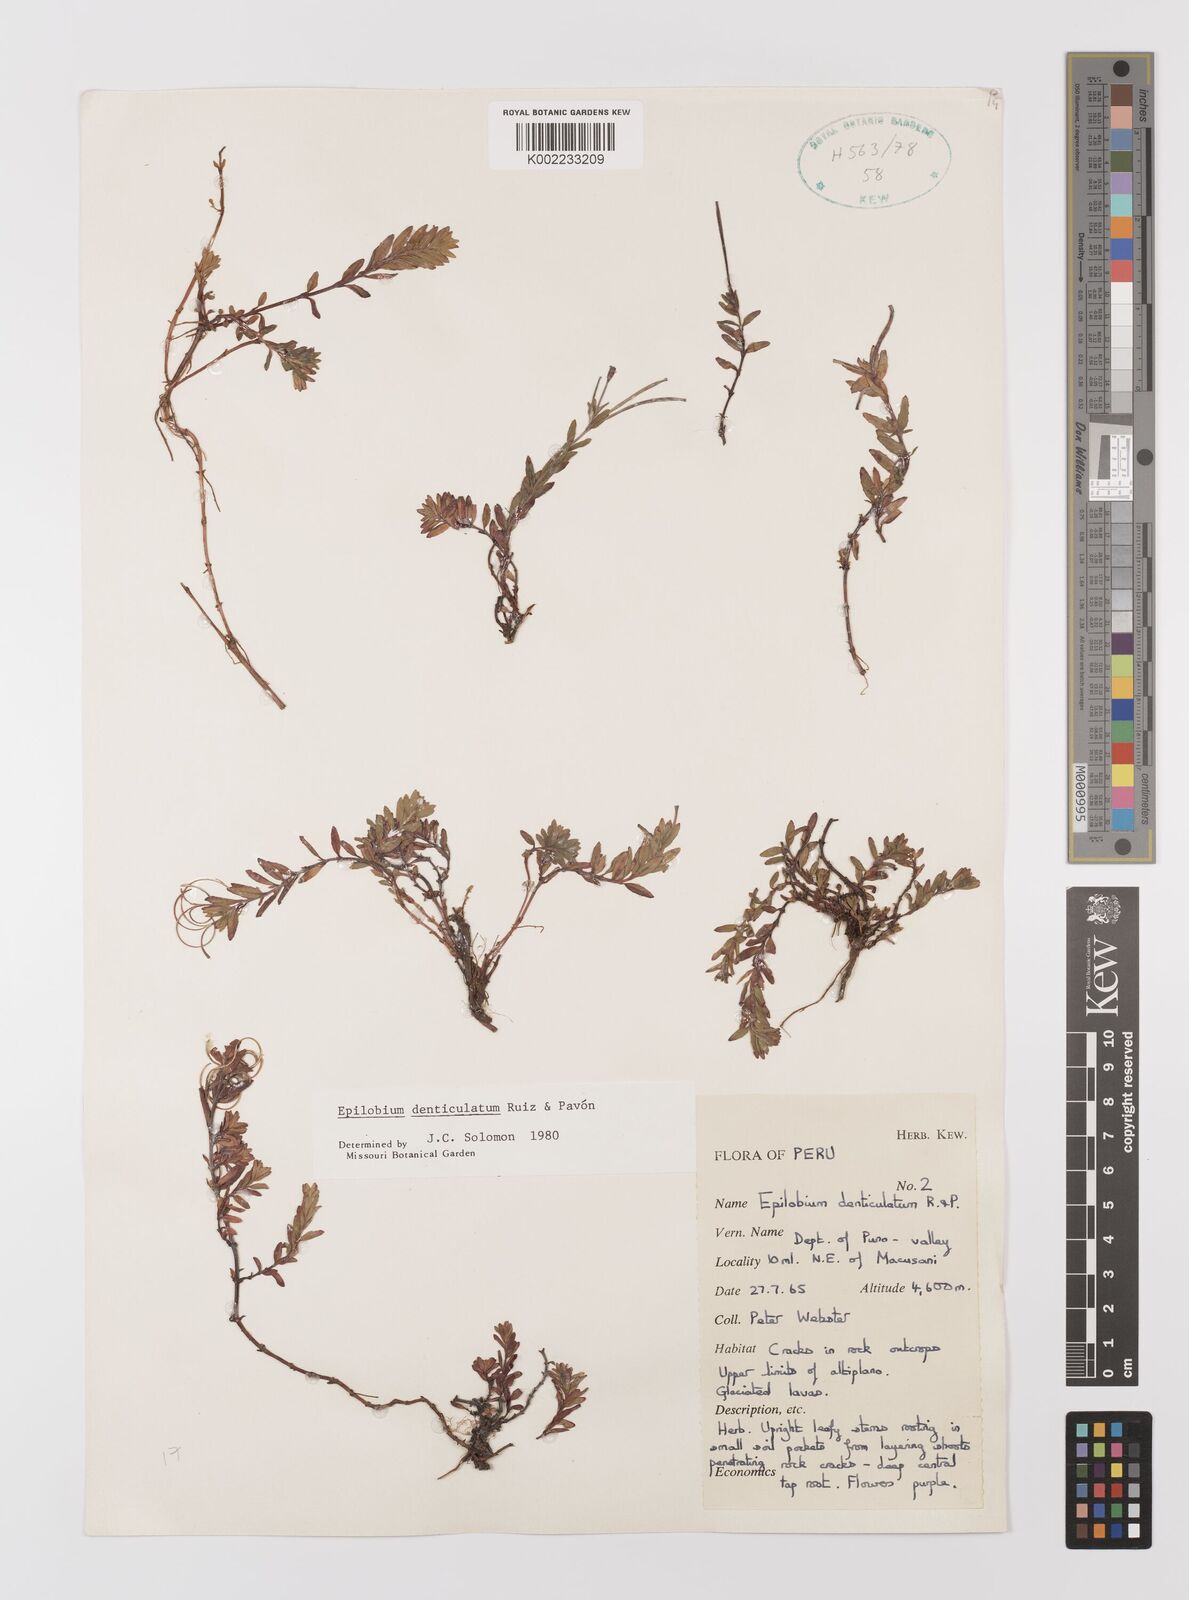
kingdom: Plantae
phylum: Tracheophyta
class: Magnoliopsida
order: Myrtales
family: Onagraceae
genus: Epilobium
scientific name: Epilobium denticulatum
